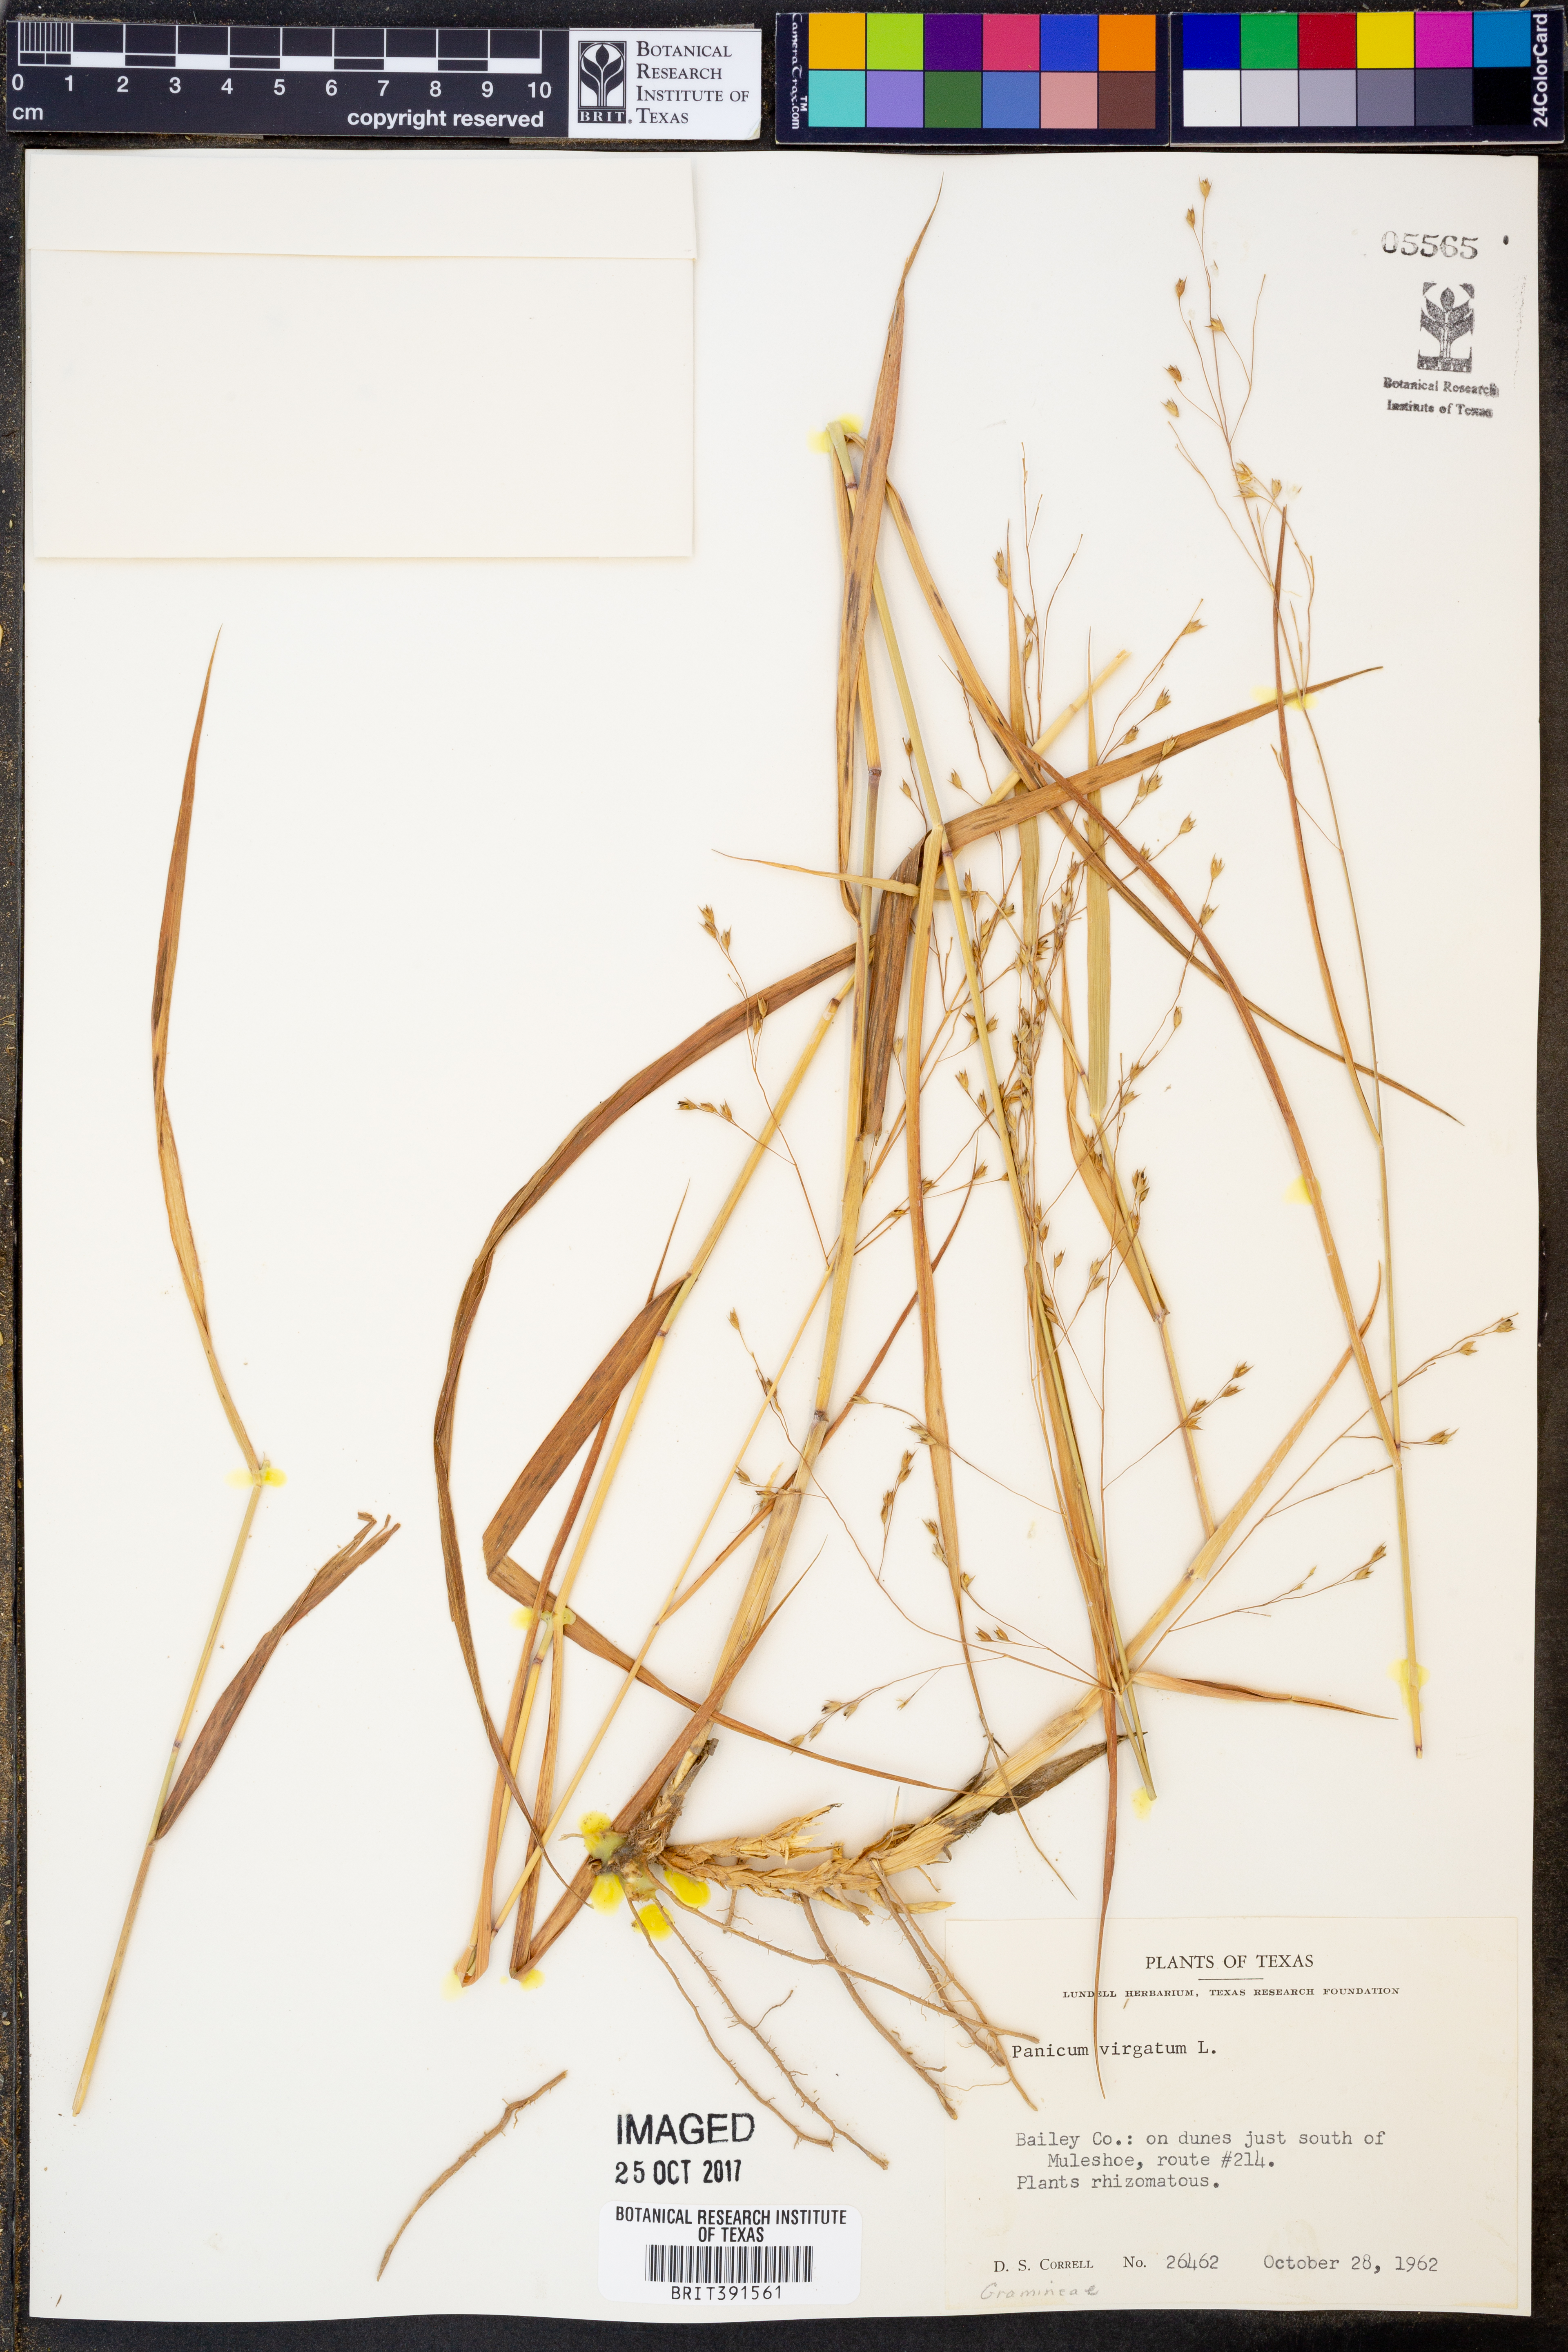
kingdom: Plantae
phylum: Tracheophyta
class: Liliopsida
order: Poales
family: Poaceae
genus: Panicum
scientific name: Panicum virgatum
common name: Switchgrass
